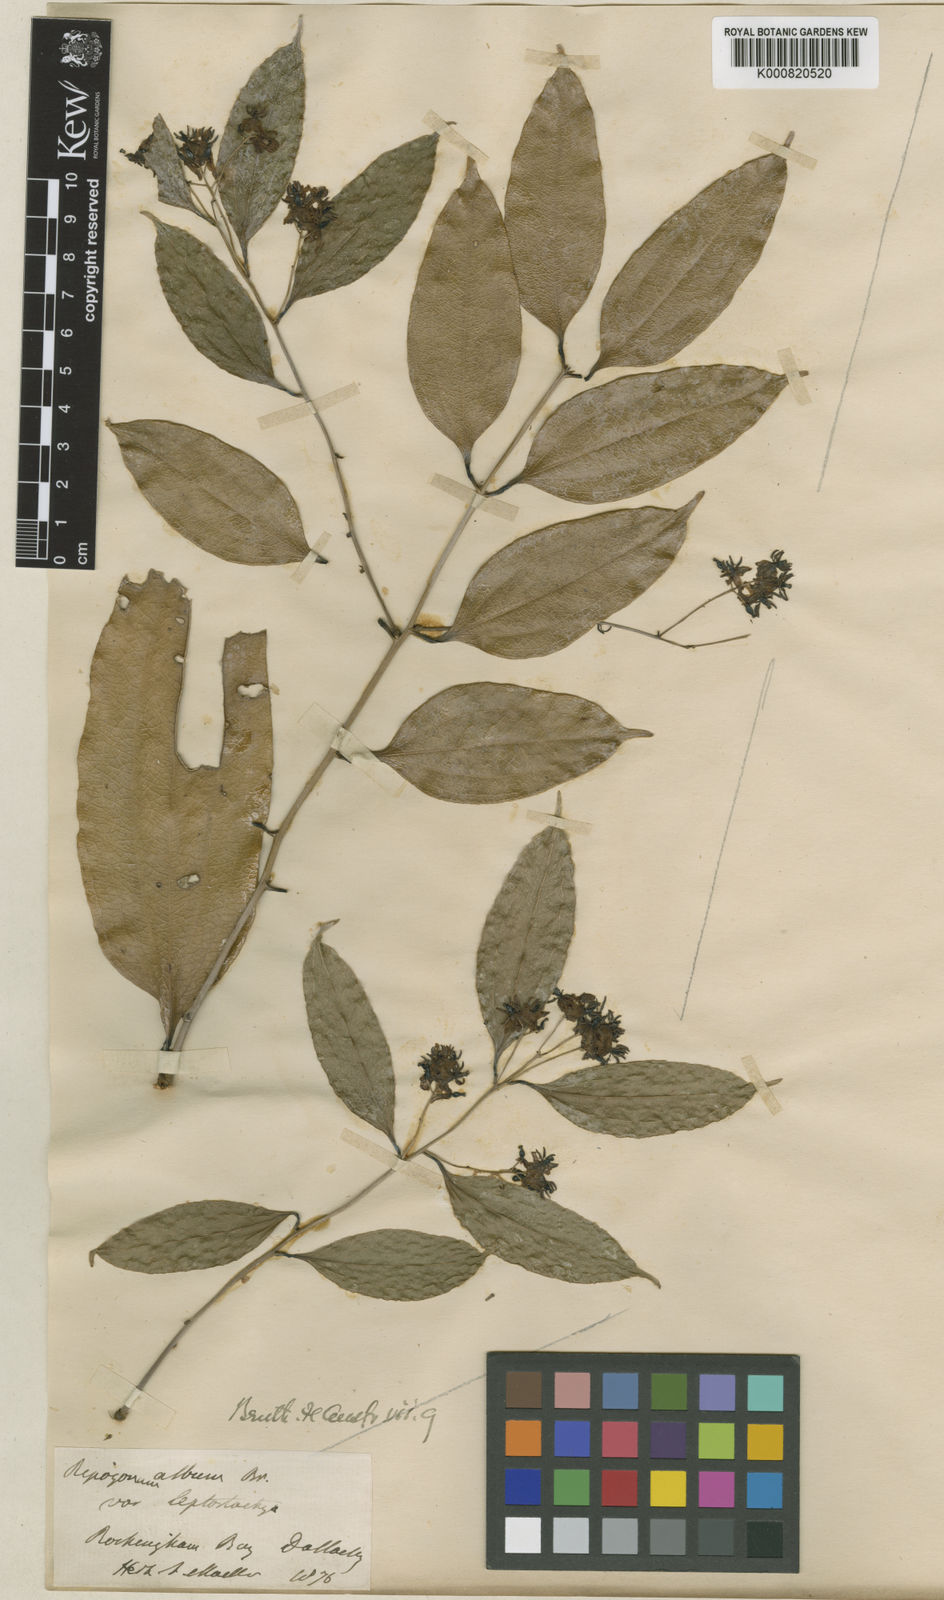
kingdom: Plantae
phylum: Tracheophyta
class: Liliopsida
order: Liliales
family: Ripogonaceae
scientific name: Ripogonaceae
